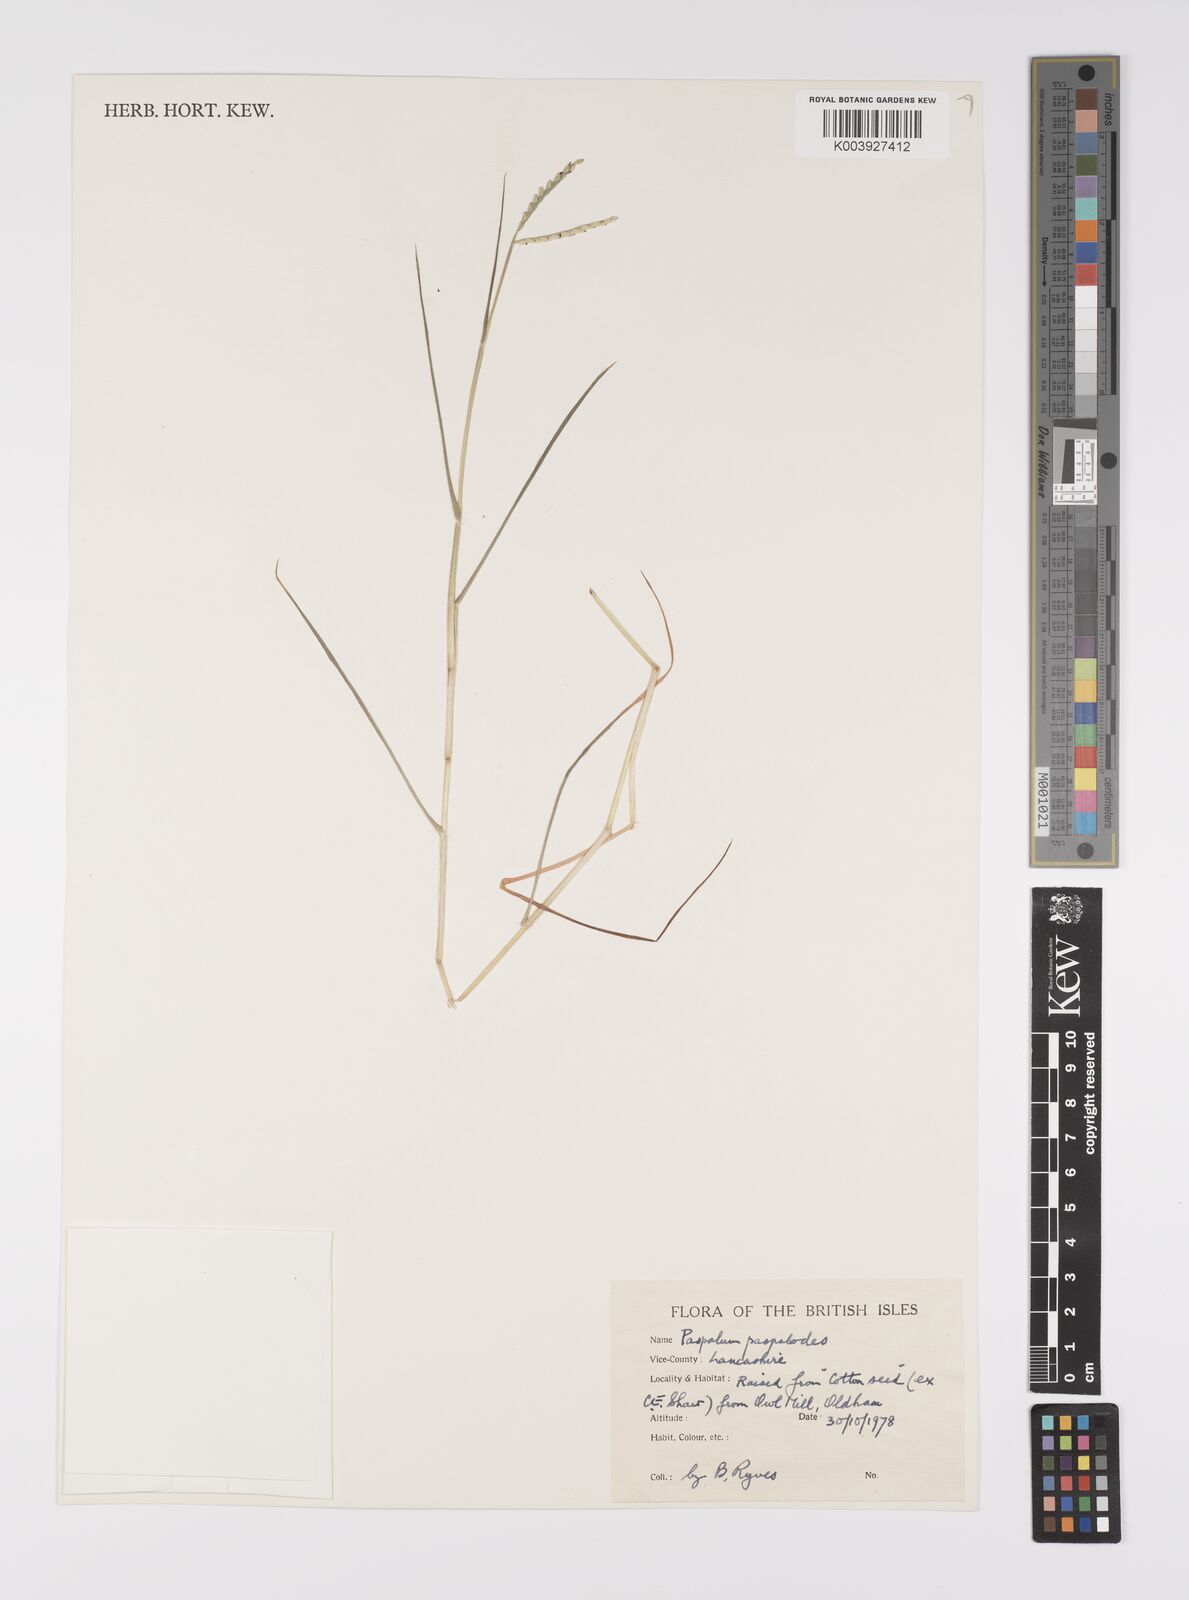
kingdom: Plantae
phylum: Tracheophyta
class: Liliopsida
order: Poales
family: Poaceae
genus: Paspalum
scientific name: Paspalum distichum
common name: Knotgrass
